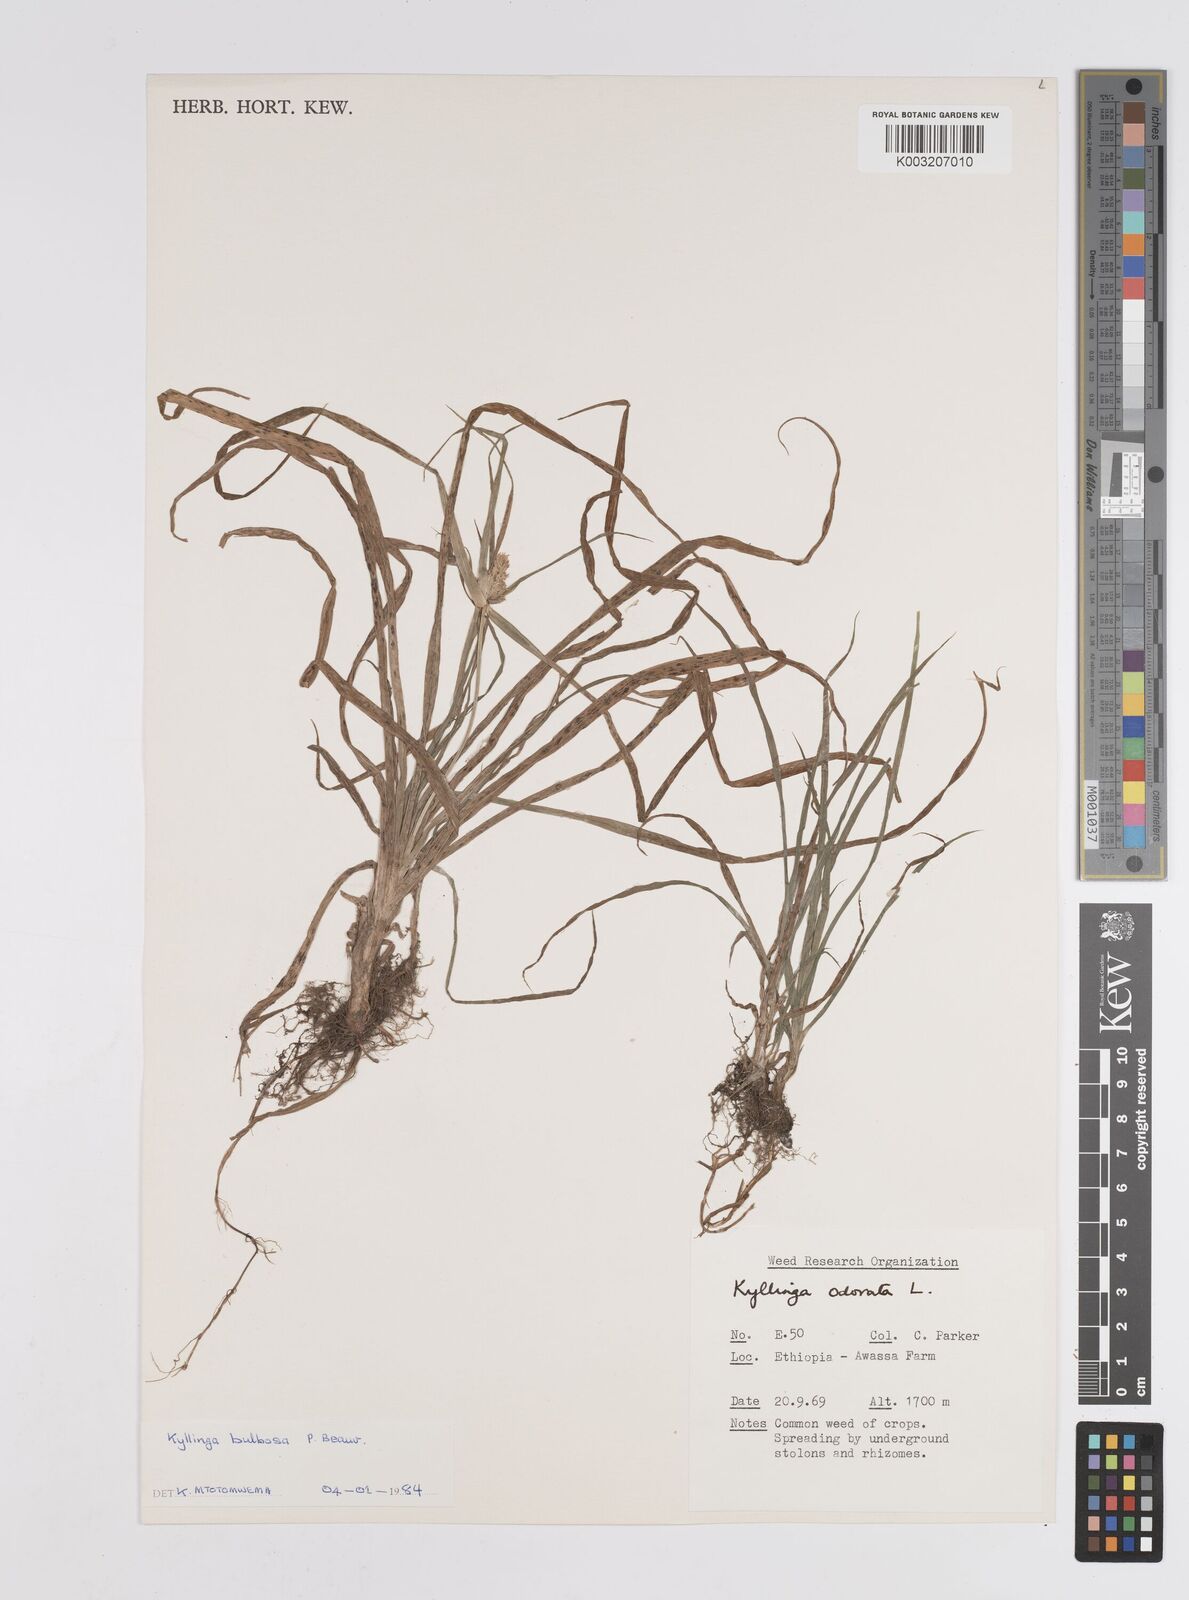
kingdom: Plantae
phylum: Tracheophyta
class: Liliopsida
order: Poales
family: Cyperaceae
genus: Cyperus
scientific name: Cyperus
